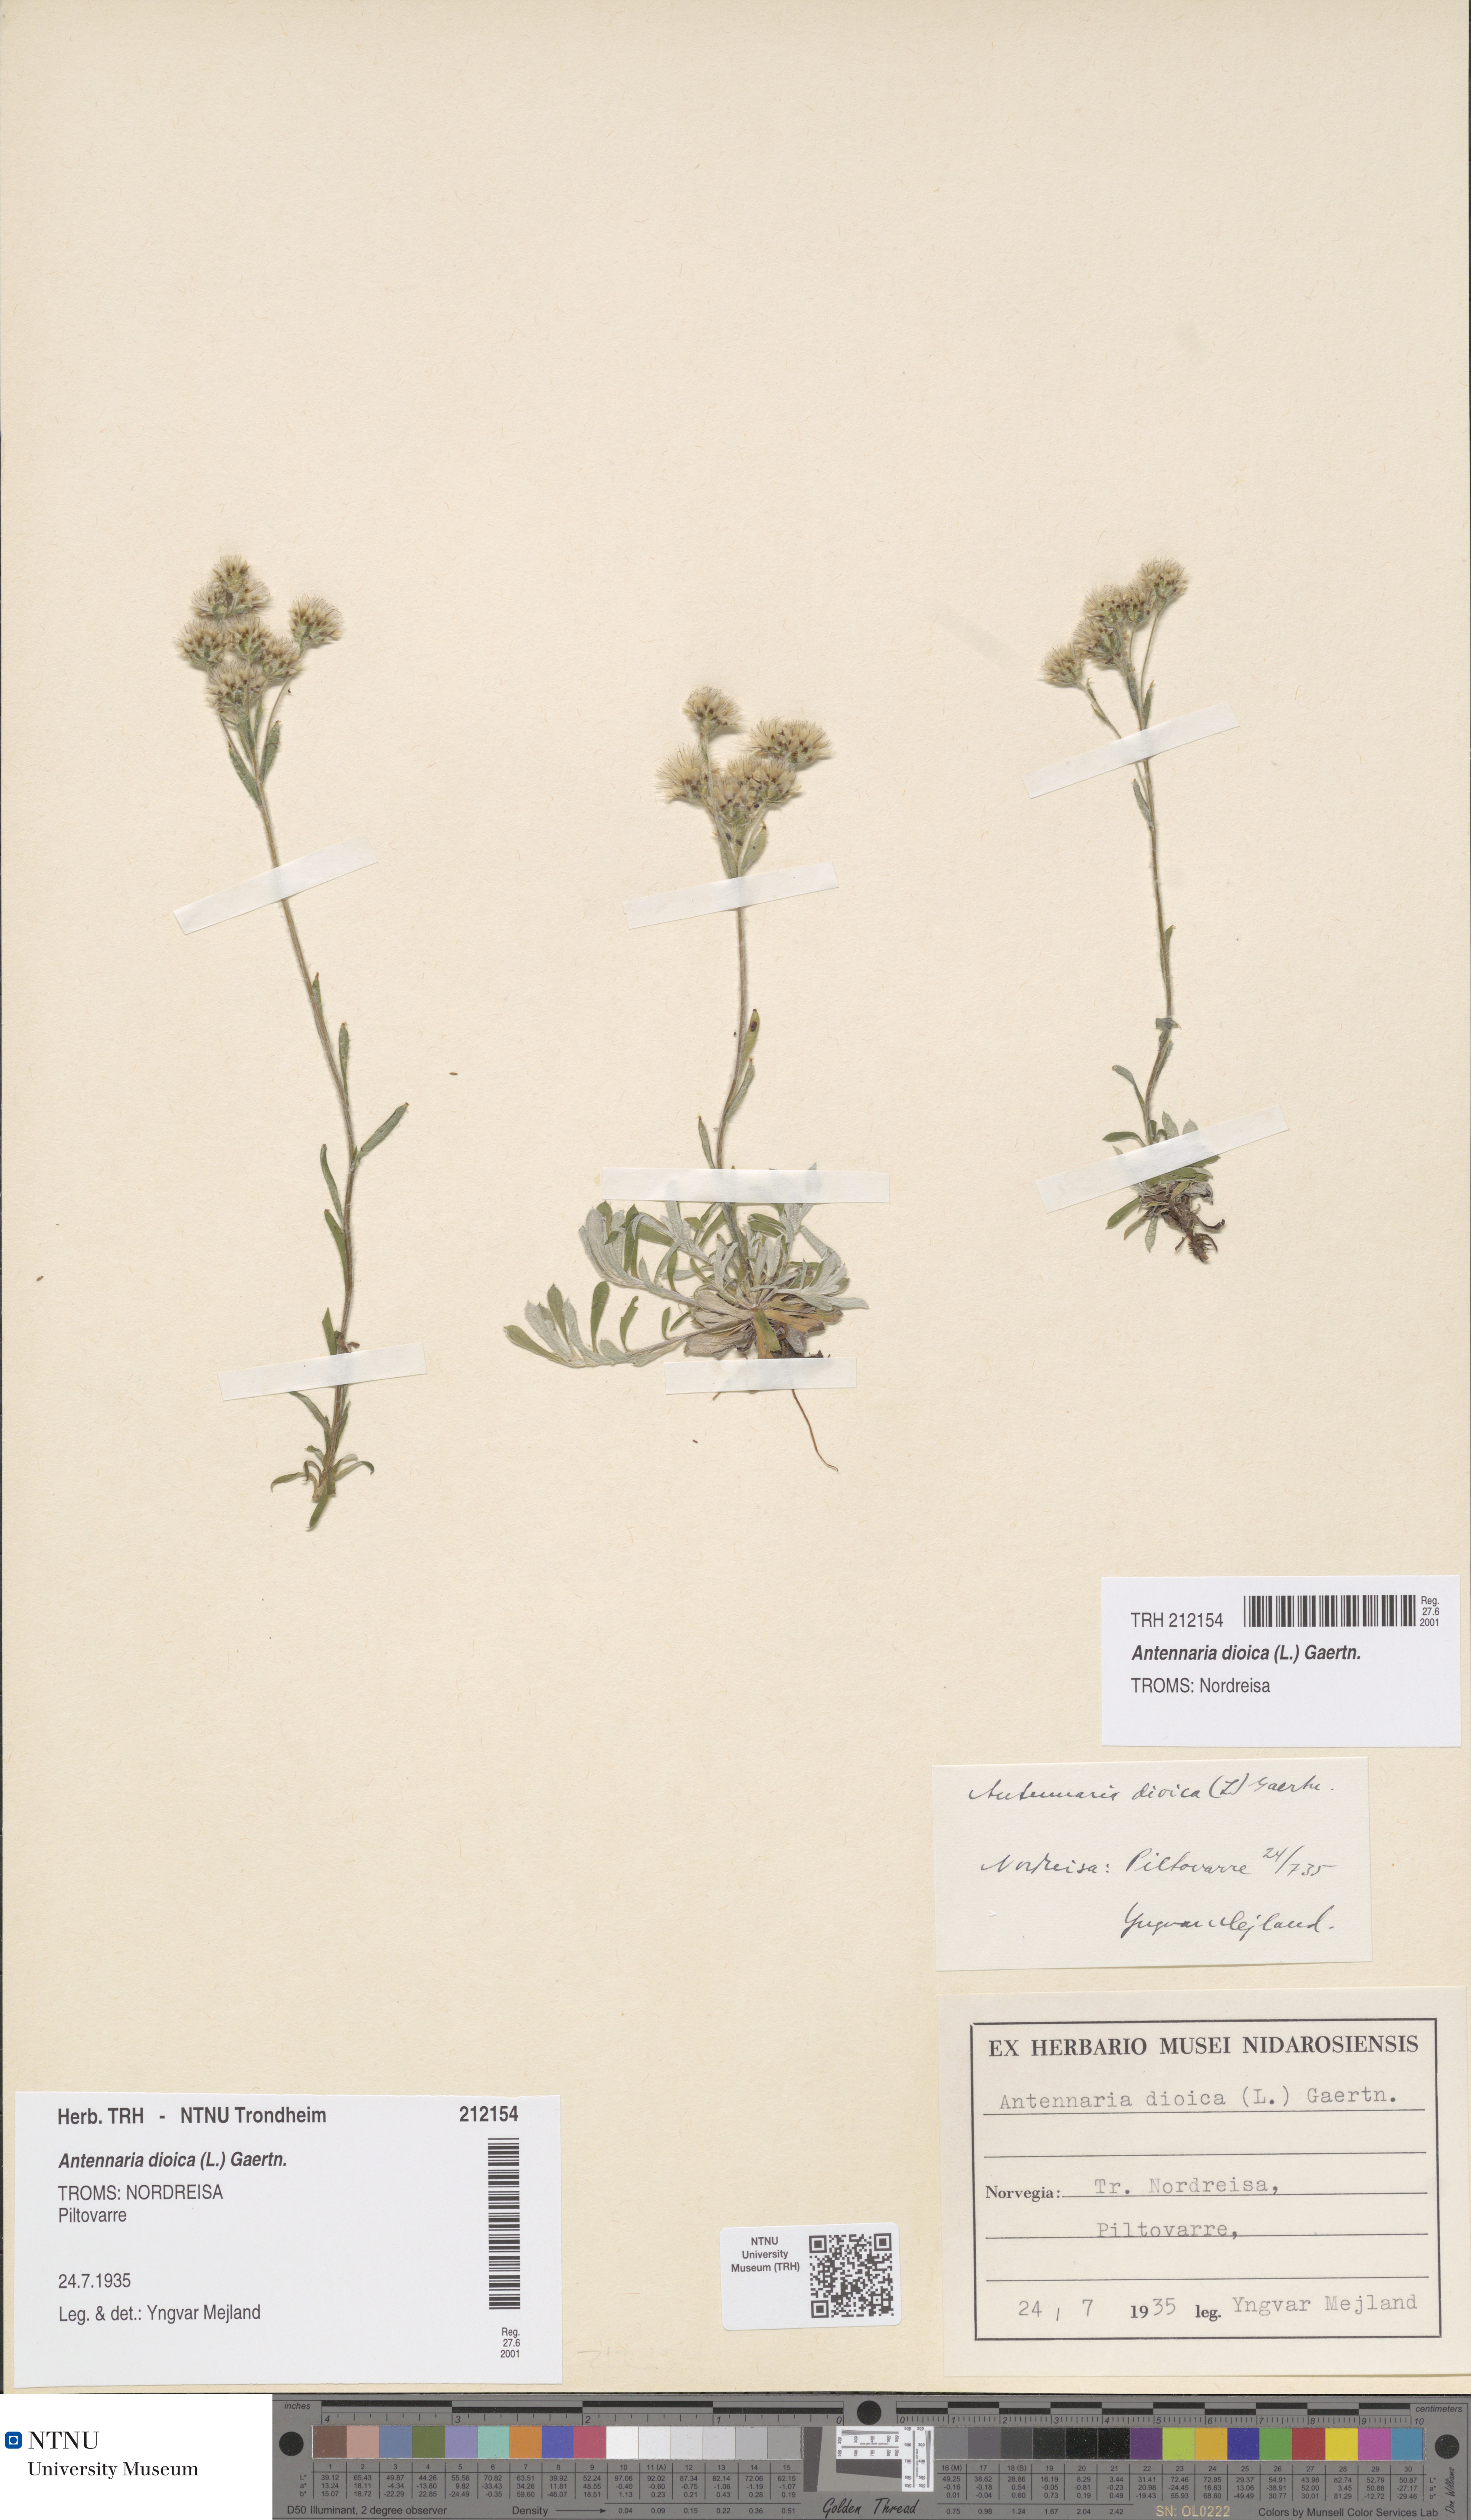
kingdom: Plantae
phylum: Tracheophyta
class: Magnoliopsida
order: Asterales
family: Asteraceae
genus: Antennaria
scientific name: Antennaria dioica
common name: Mountain everlasting
